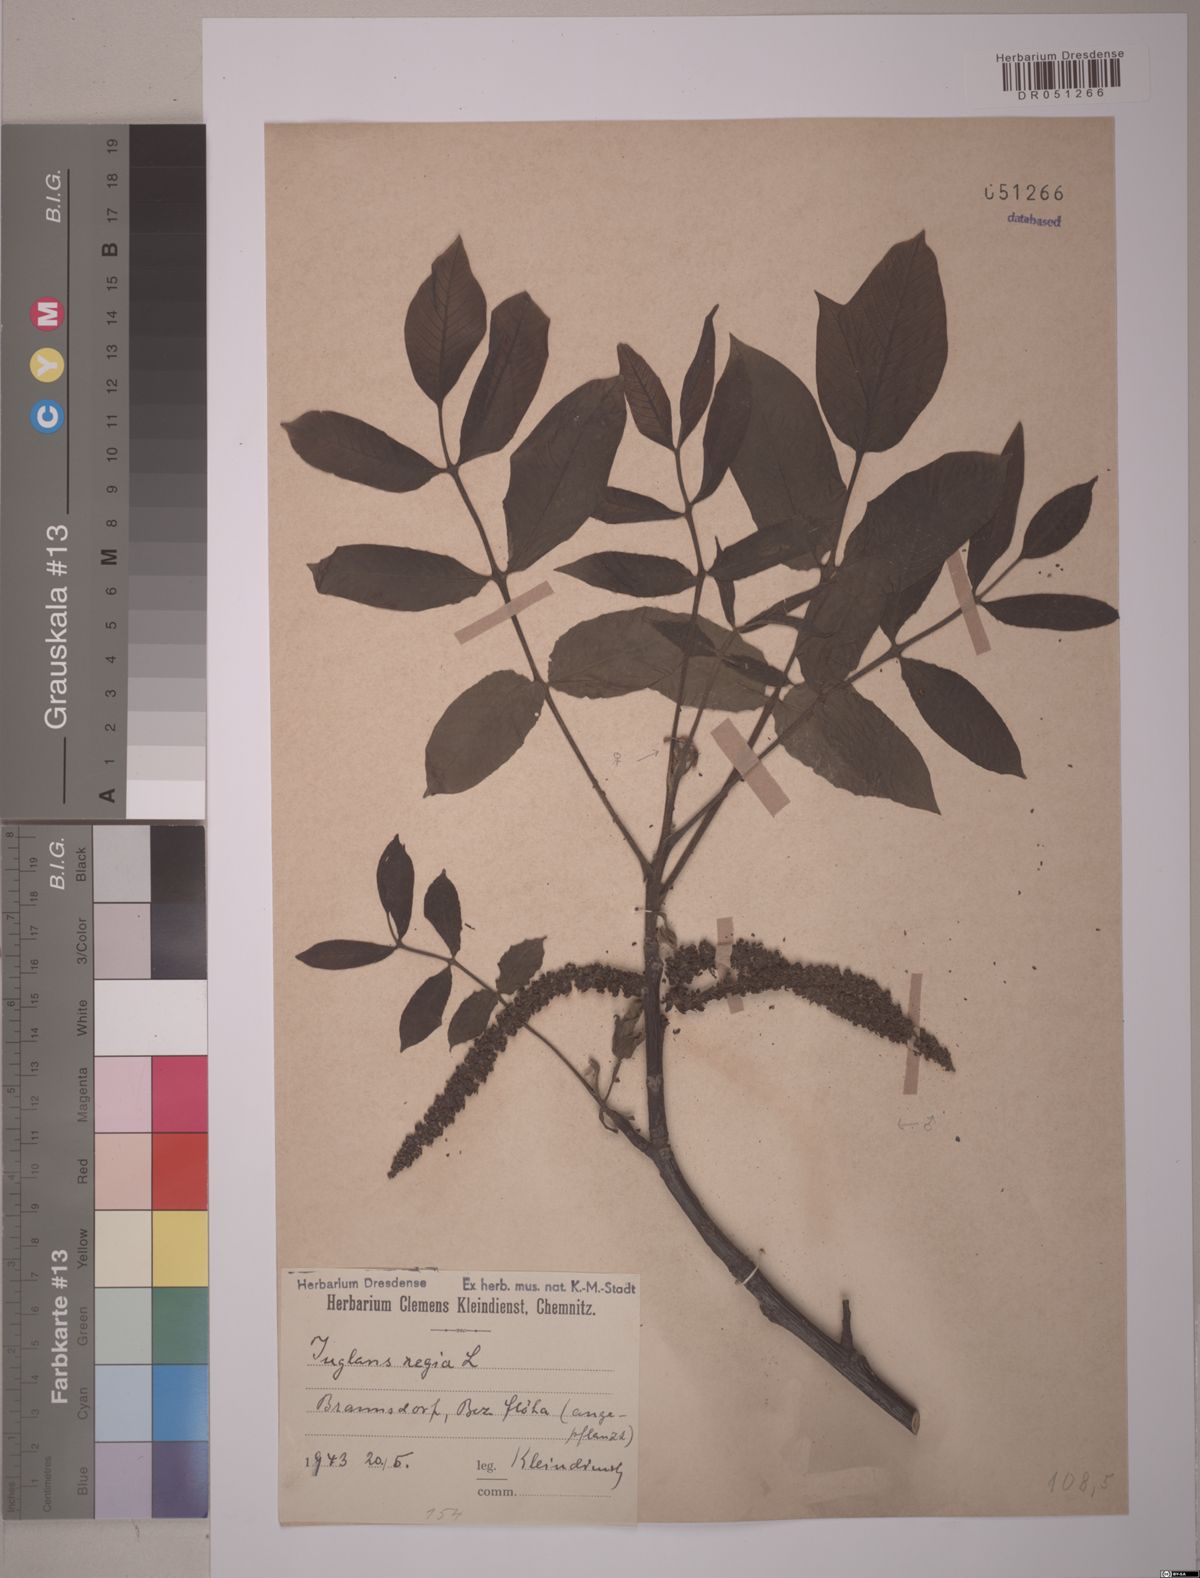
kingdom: Plantae
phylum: Tracheophyta
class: Magnoliopsida
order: Fagales
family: Juglandaceae
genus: Juglans
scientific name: Juglans regia
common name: Walnut
